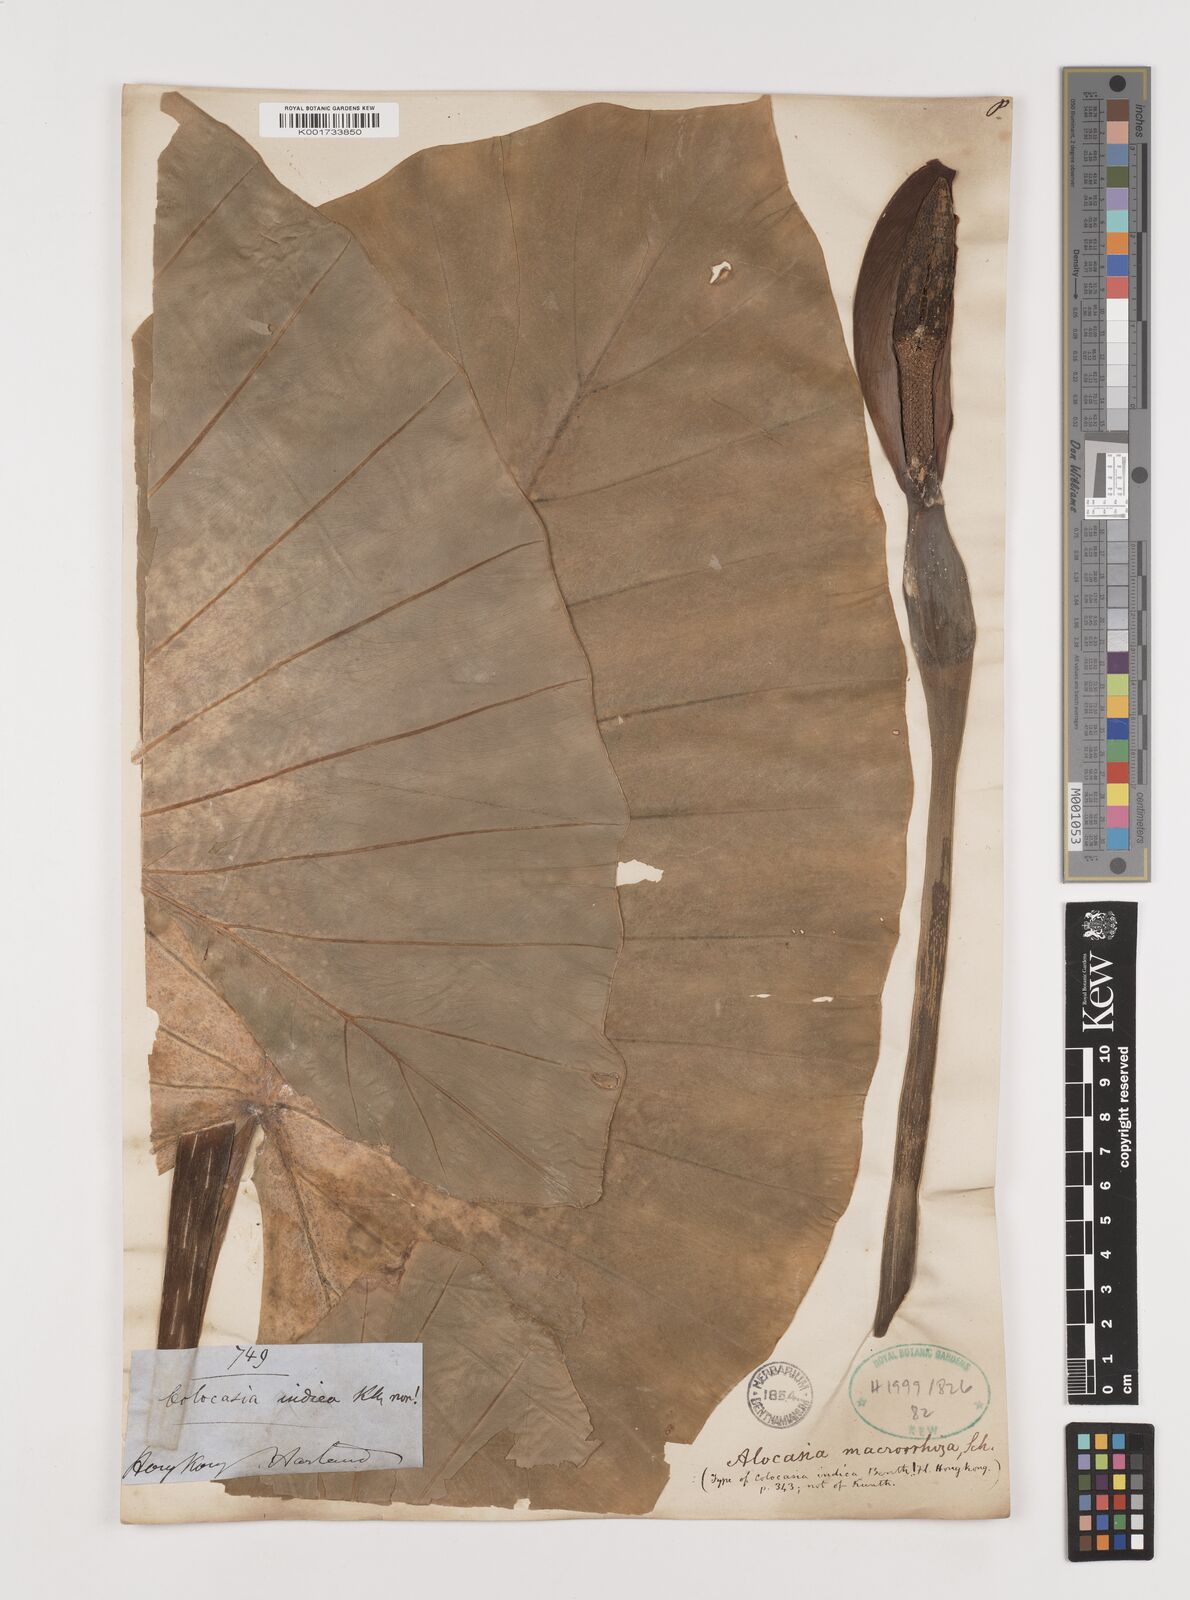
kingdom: Plantae
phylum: Tracheophyta
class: Liliopsida
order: Alismatales
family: Araceae
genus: Alocasia
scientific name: Alocasia macrorrhizos
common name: Giant taro
